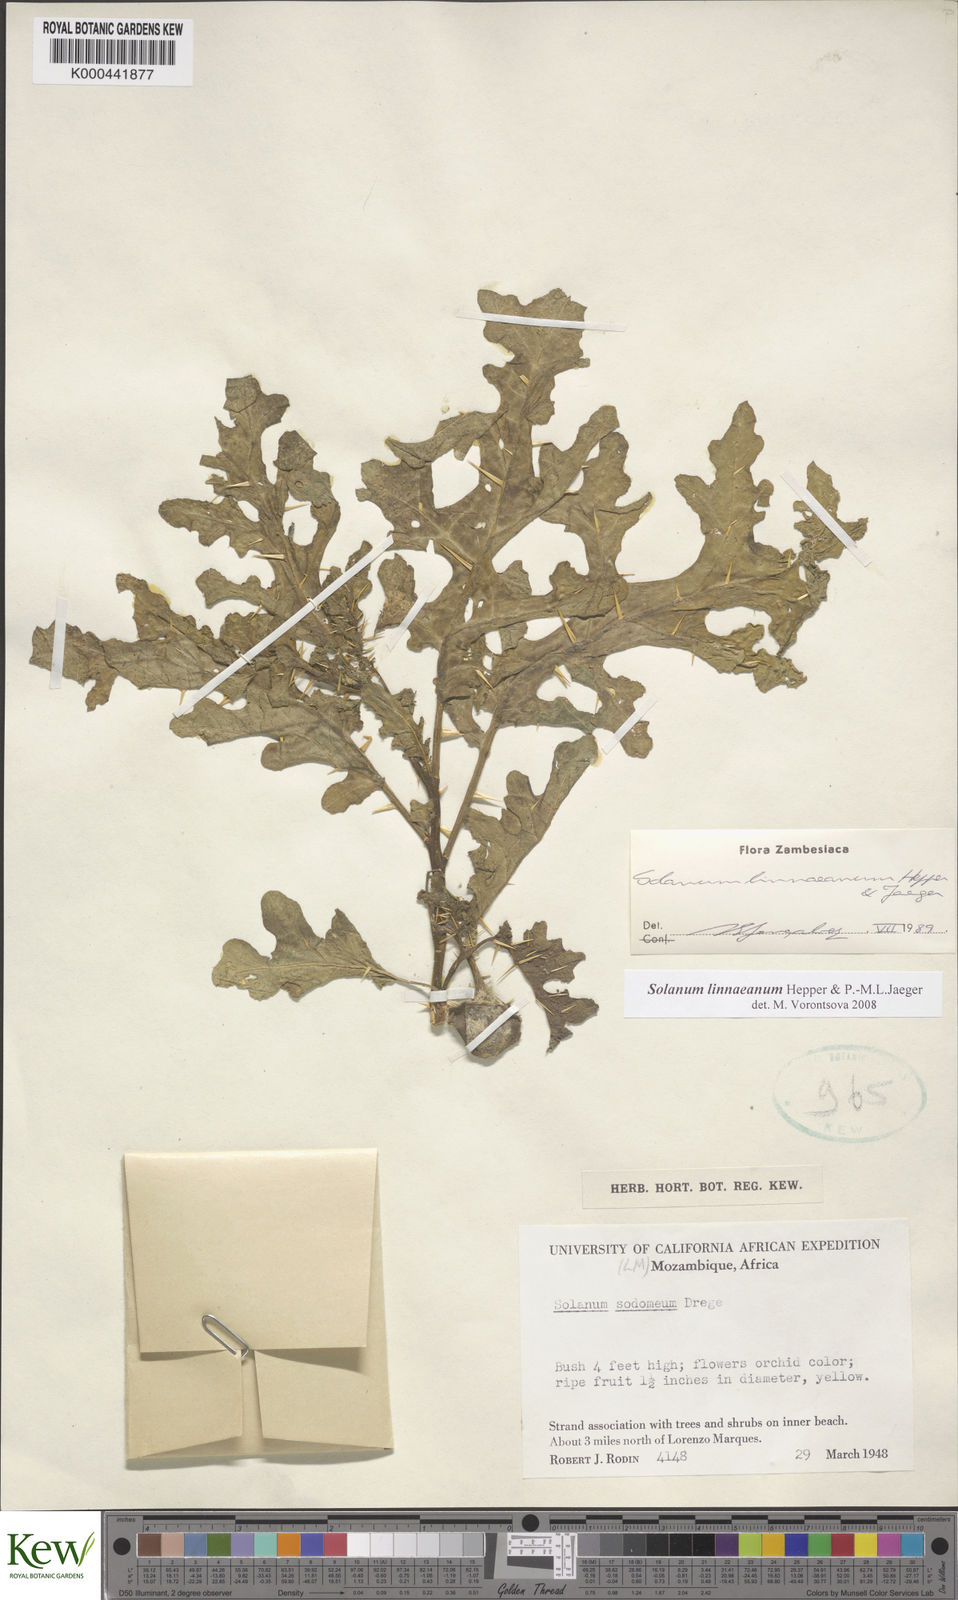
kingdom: Plantae
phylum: Tracheophyta
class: Magnoliopsida
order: Solanales
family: Solanaceae
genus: Solanum
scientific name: Solanum linnaeanum
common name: Nightshade
